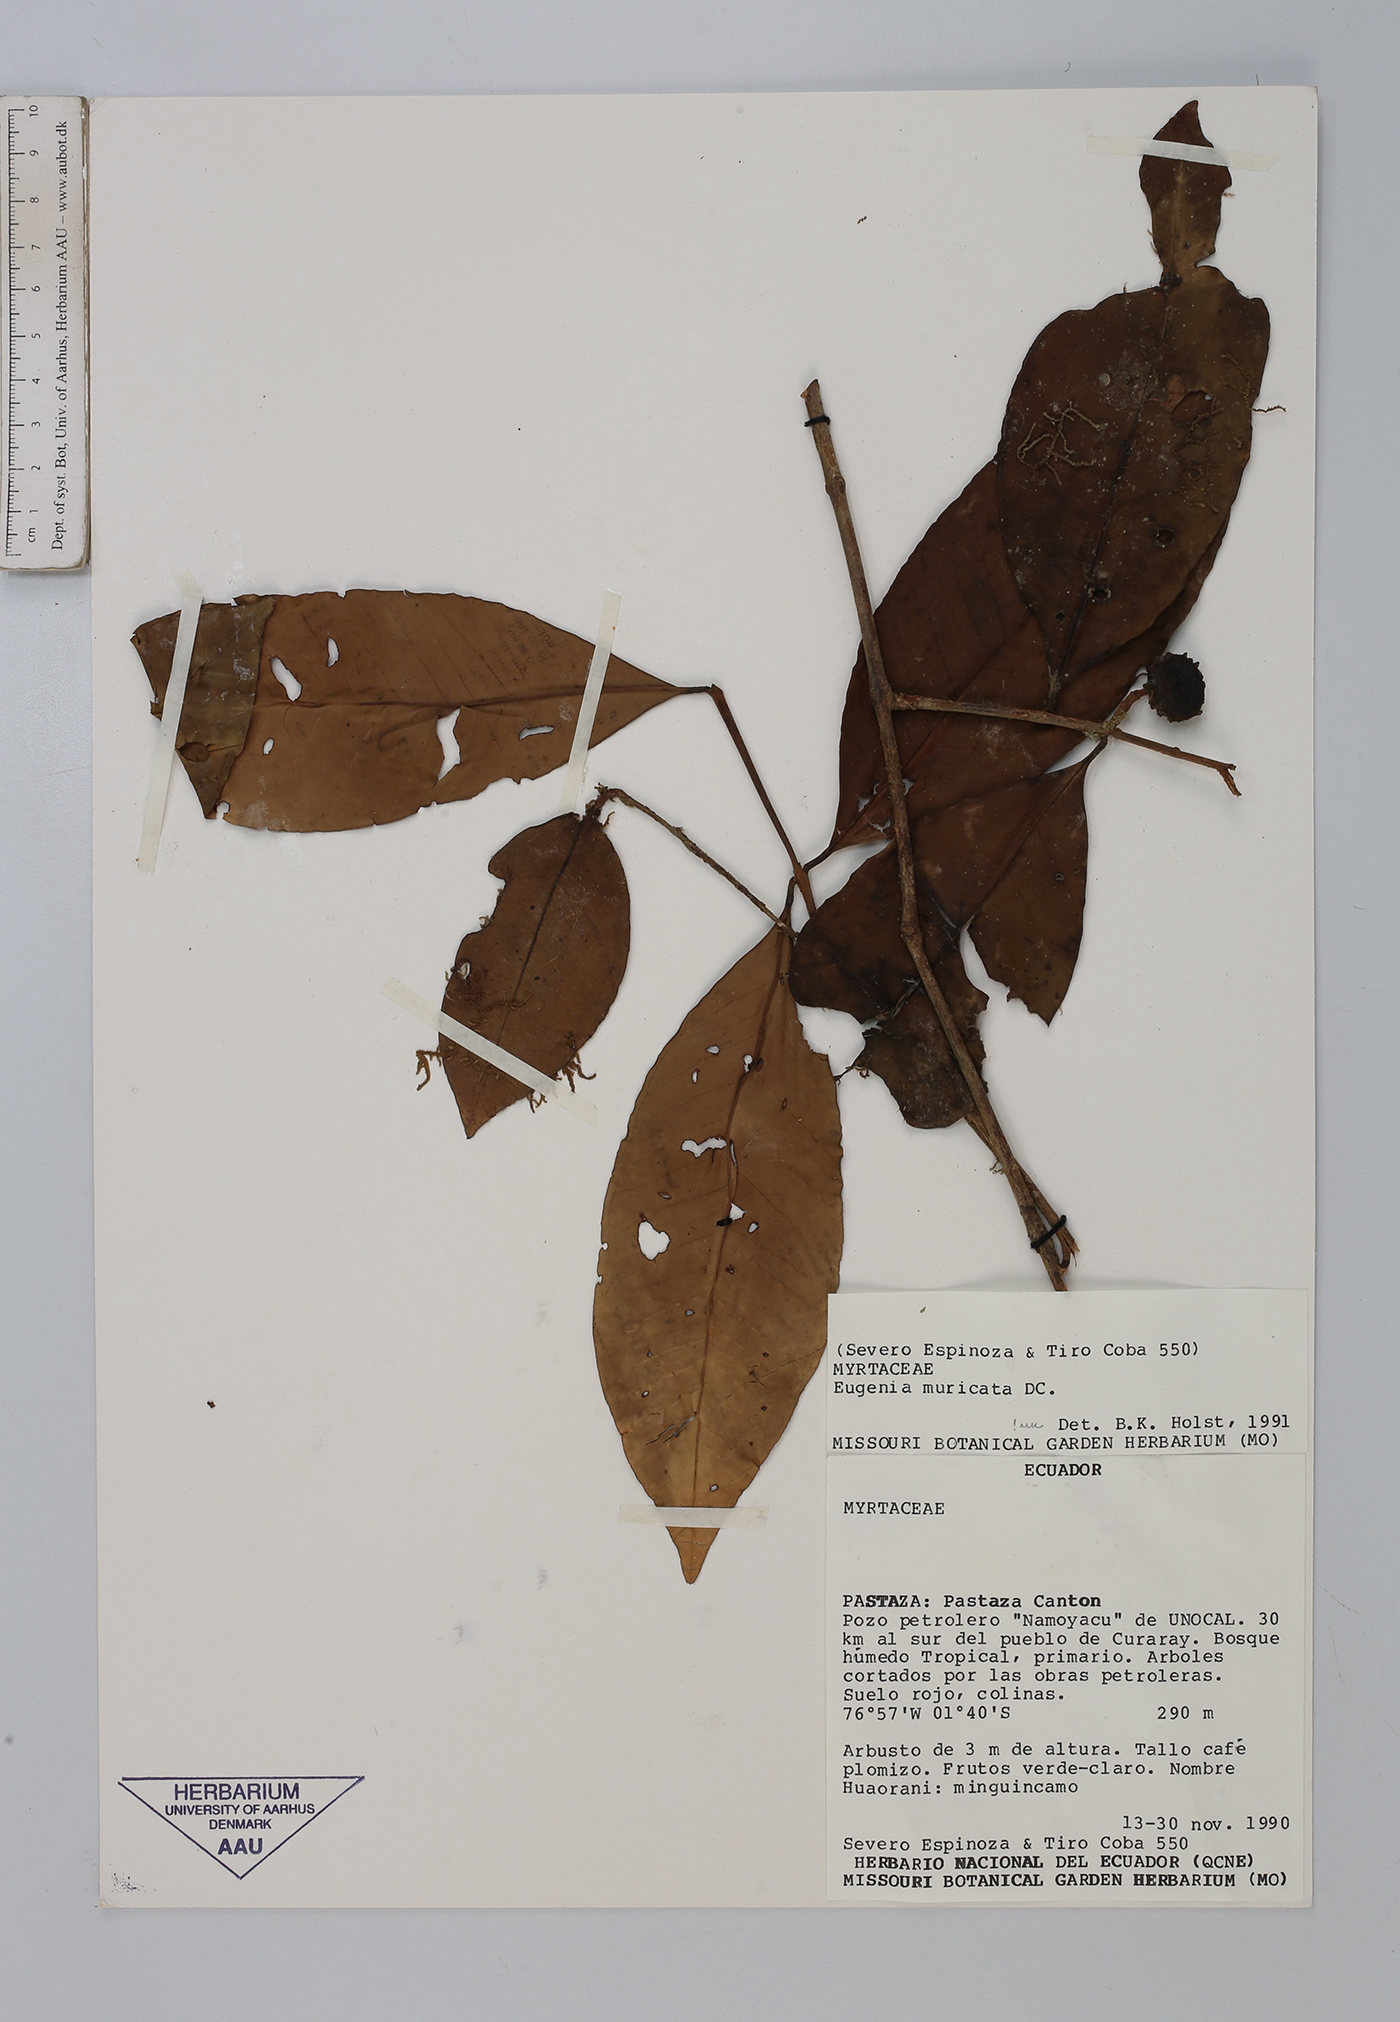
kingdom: Plantae
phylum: Tracheophyta
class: Magnoliopsida
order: Myrtales
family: Myrtaceae
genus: Eugenia
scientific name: Eugenia patens
